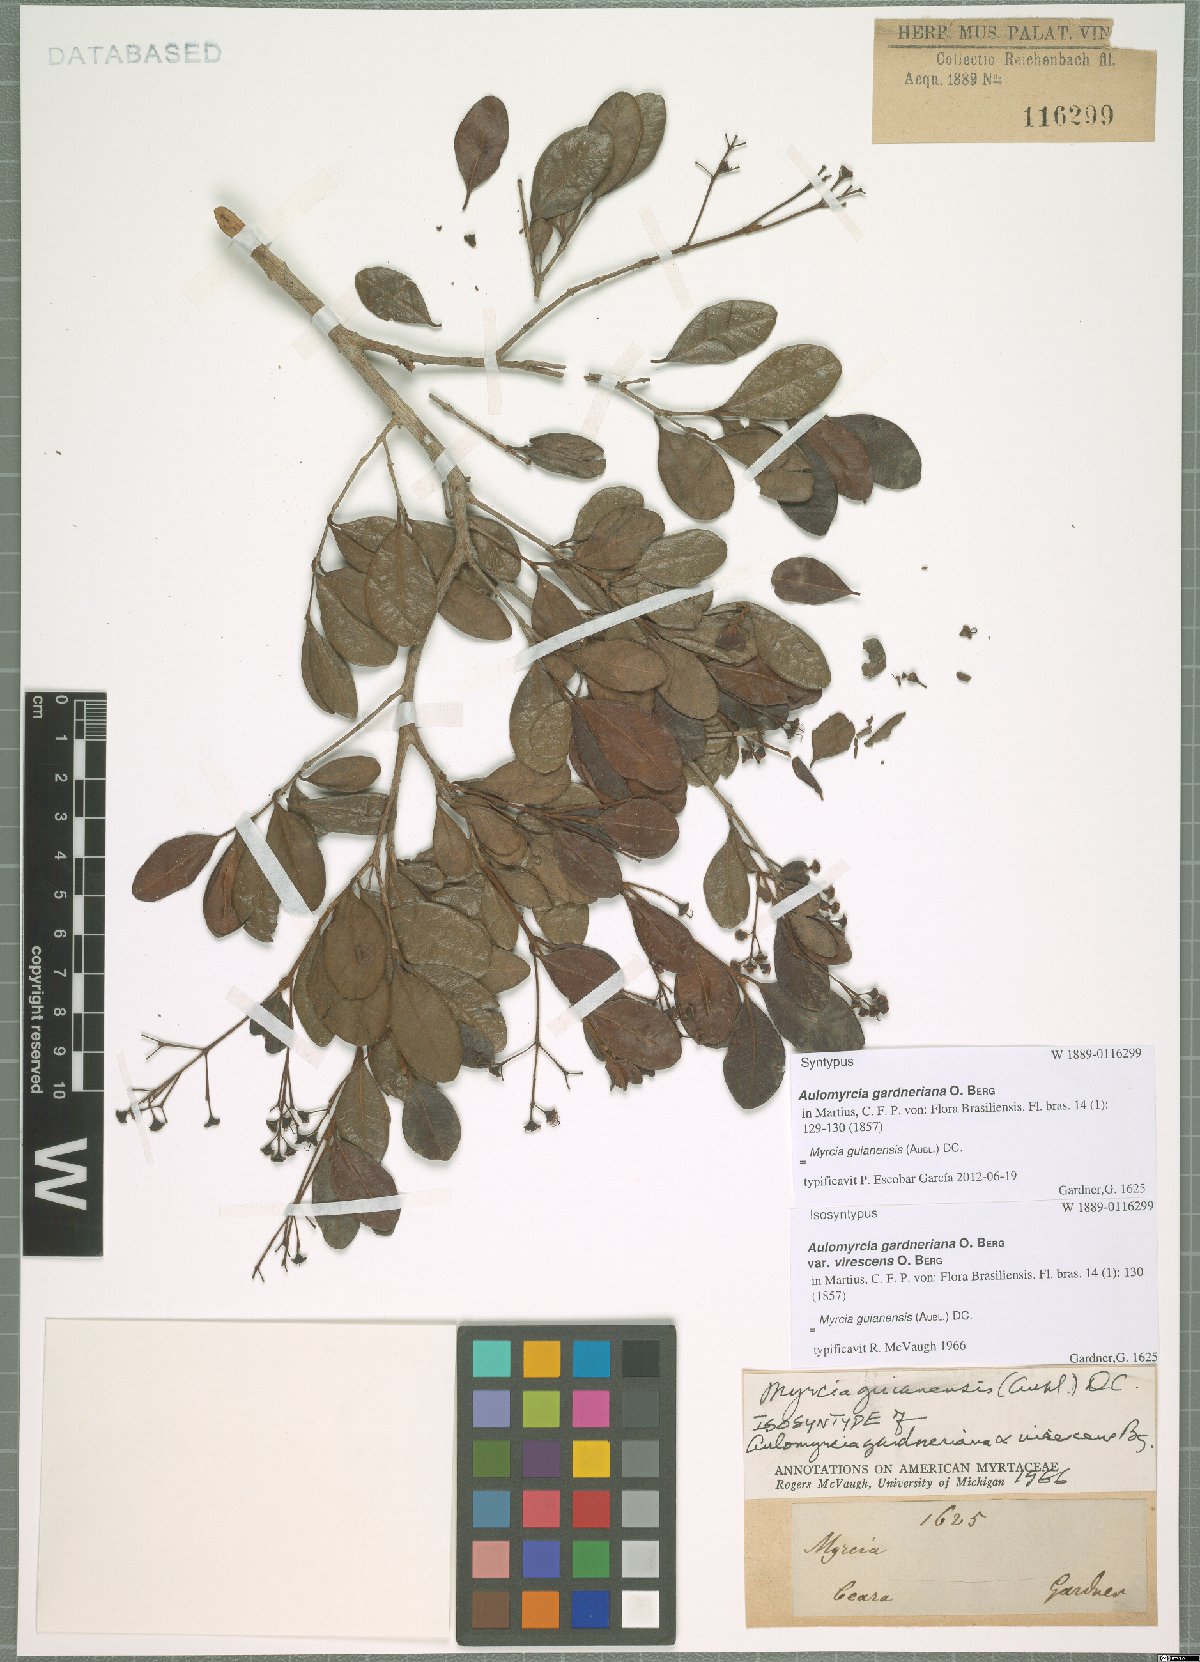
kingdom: Plantae
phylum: Tracheophyta
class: Magnoliopsida
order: Myrtales
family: Myrtaceae
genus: Myrcia
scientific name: Myrcia guianensis
